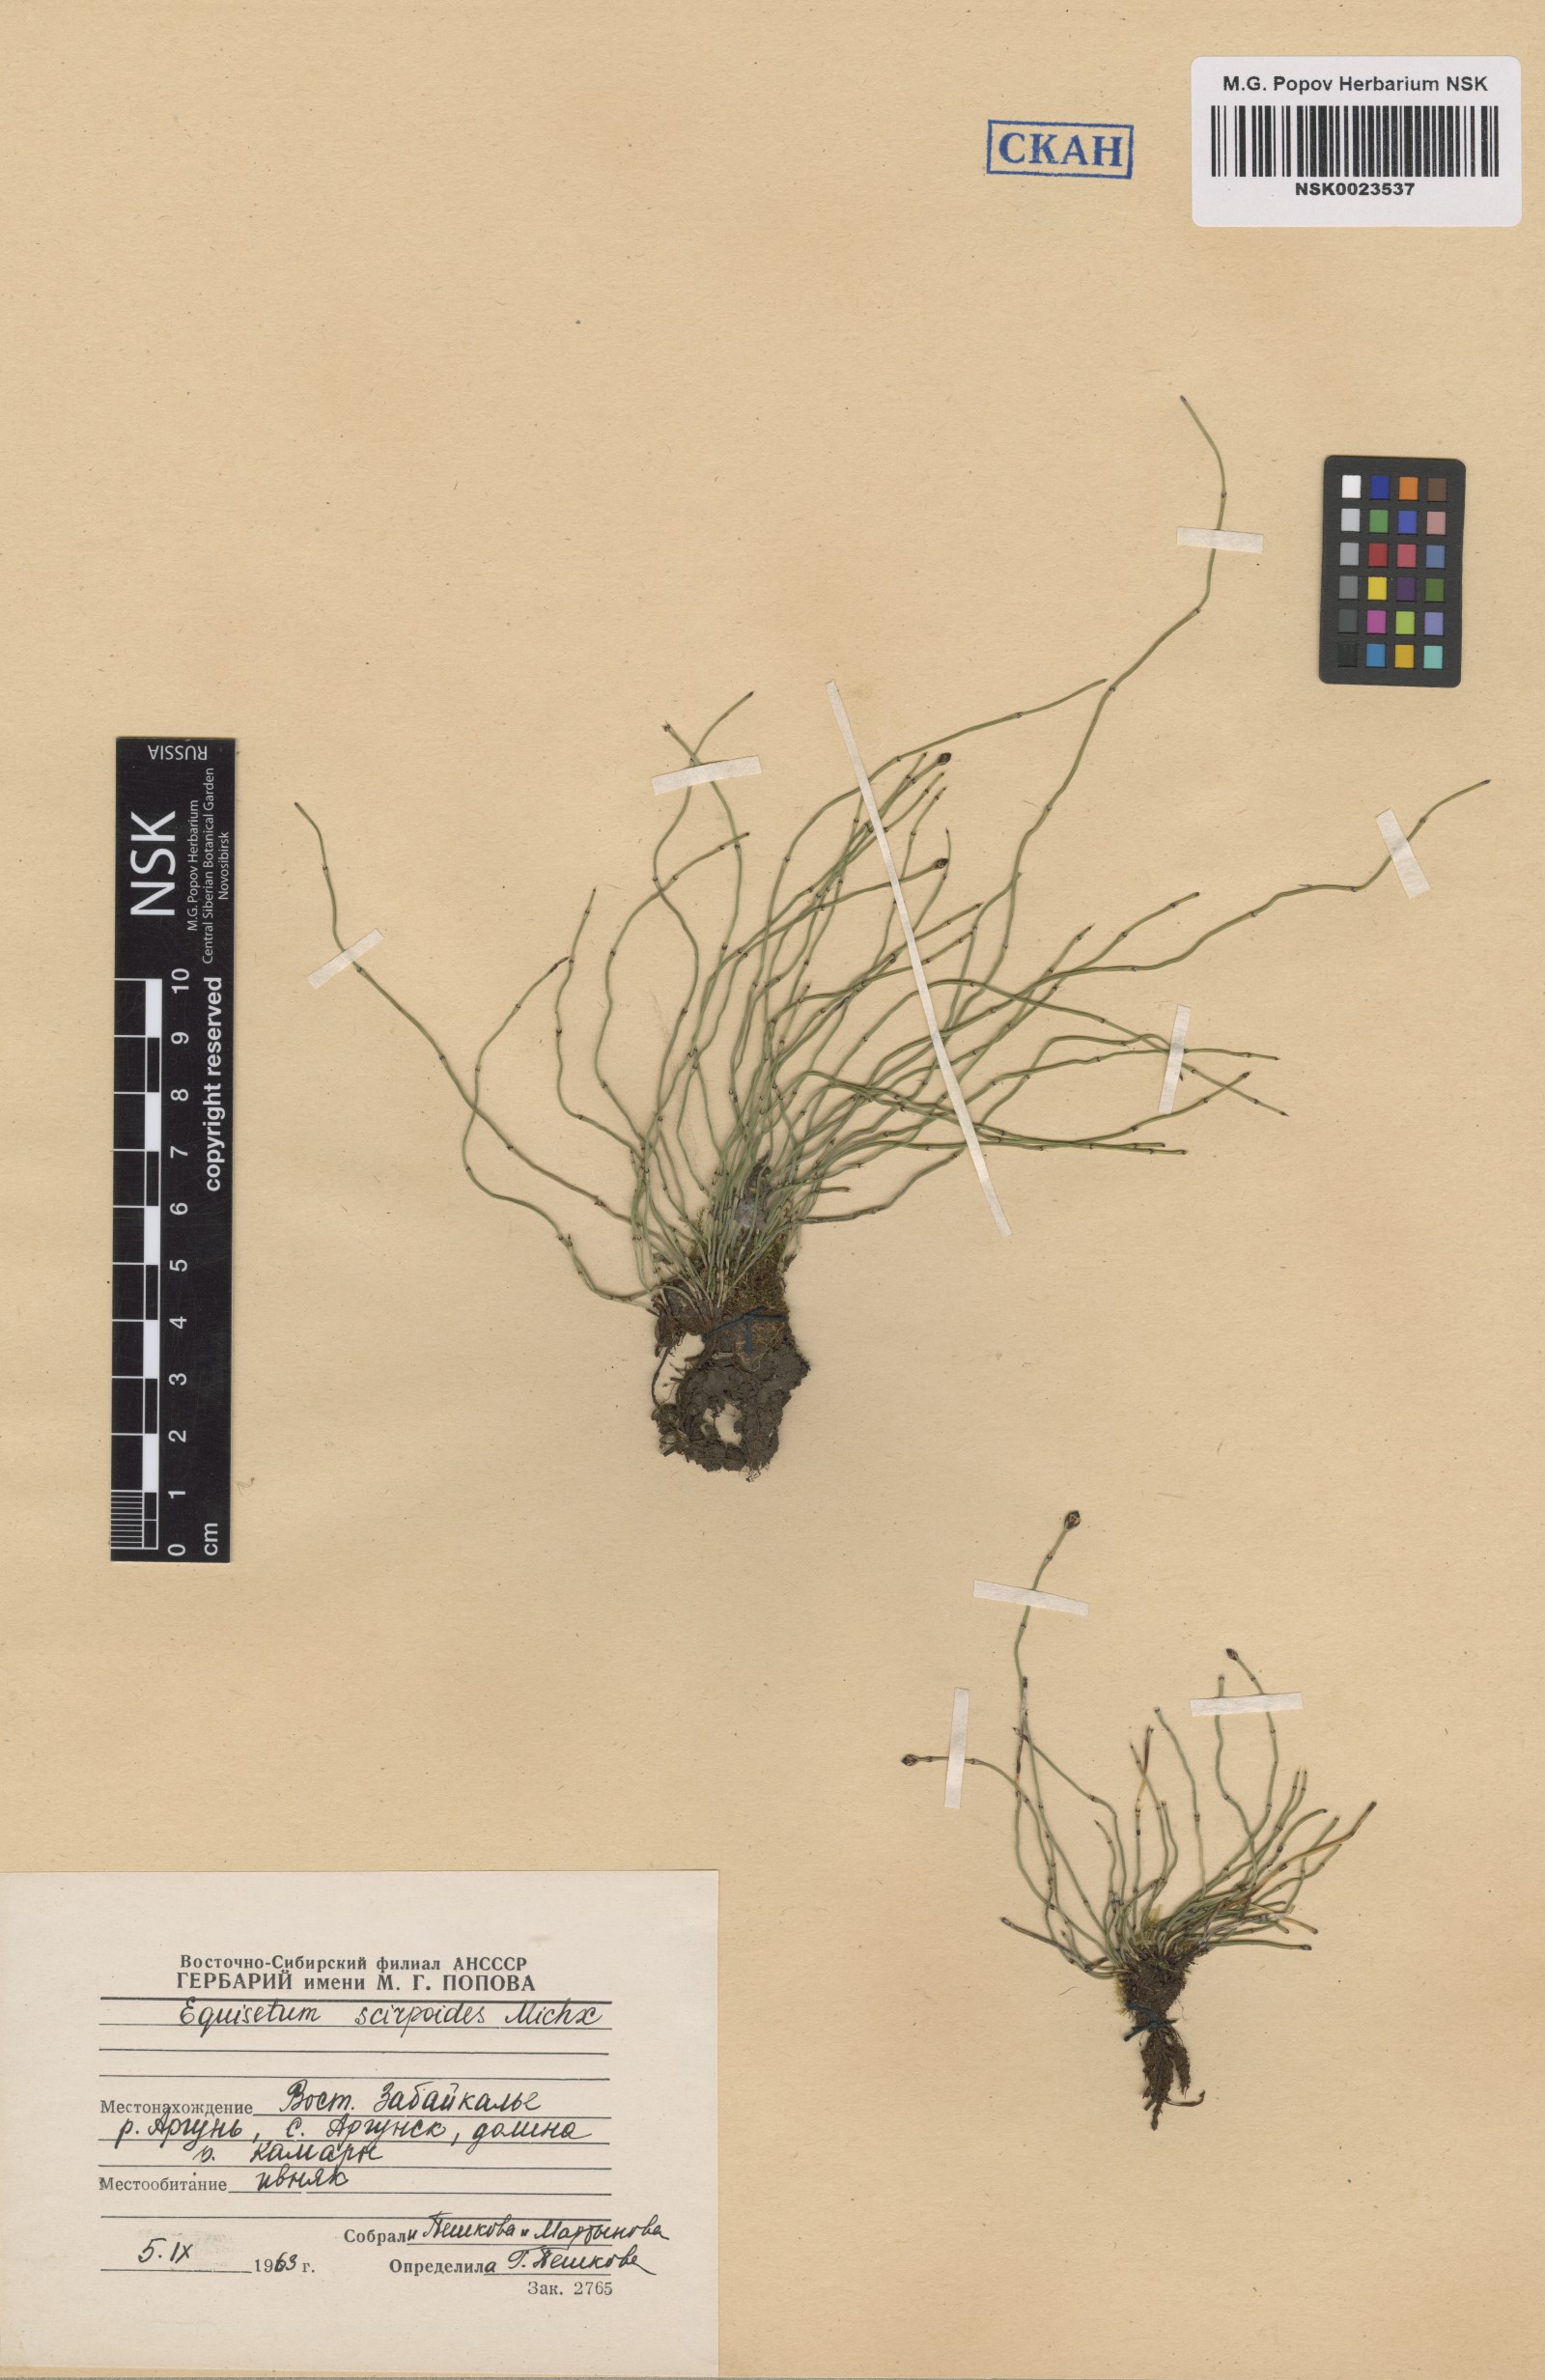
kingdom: Plantae
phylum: Tracheophyta
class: Polypodiopsida
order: Equisetales
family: Equisetaceae
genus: Equisetum
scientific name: Equisetum scirpoides
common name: Delicate horsetail
